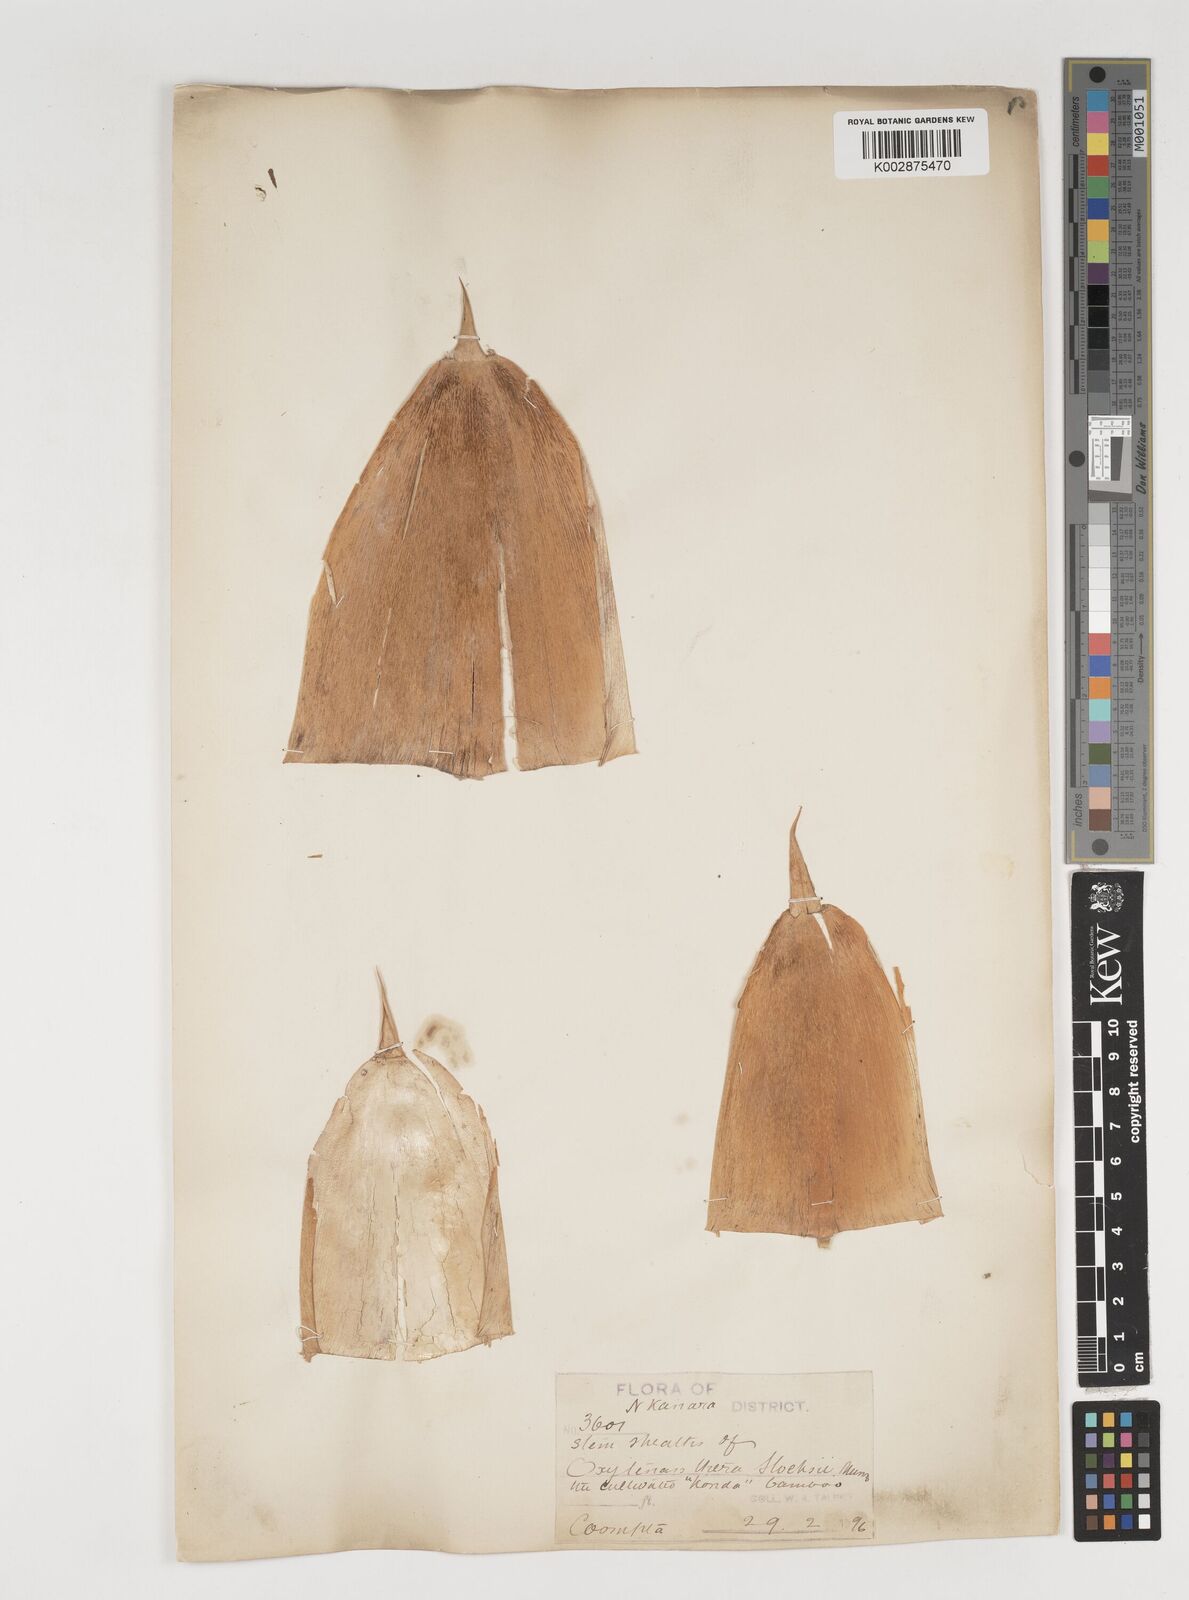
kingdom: Plantae
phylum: Tracheophyta
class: Liliopsida
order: Poales
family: Poaceae
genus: Pseudoxytenanthera
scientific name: Pseudoxytenanthera stocksii
